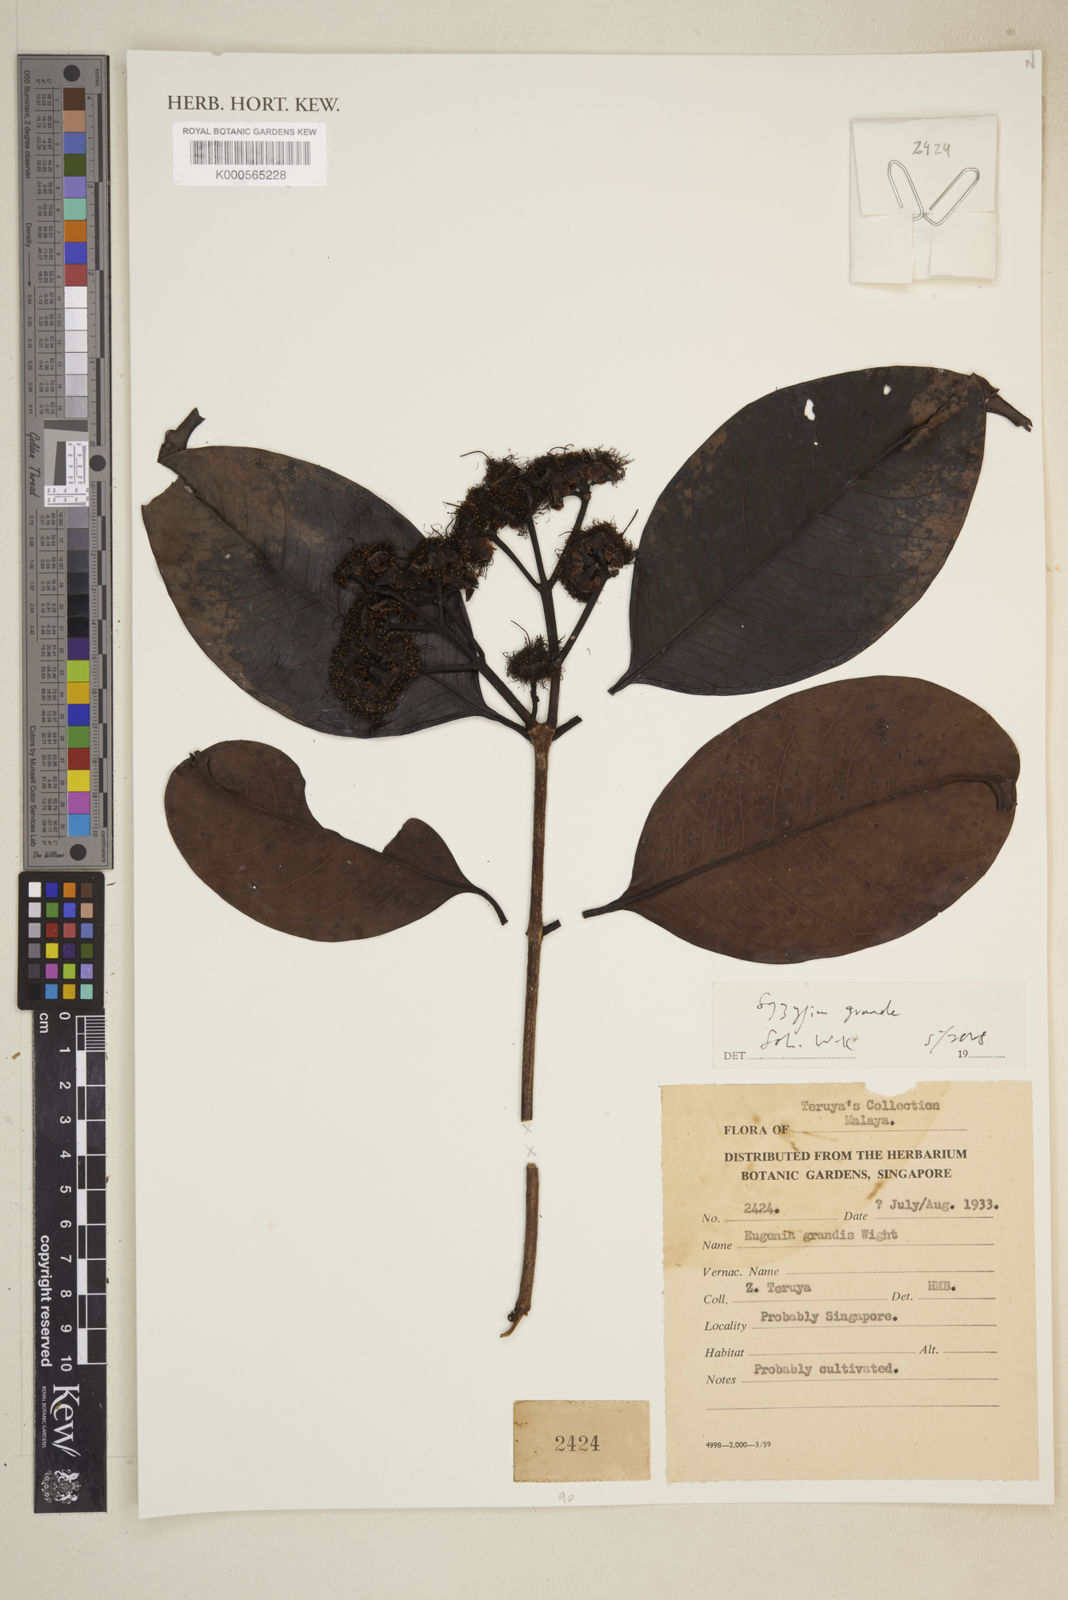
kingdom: Plantae
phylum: Tracheophyta
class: Magnoliopsida
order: Myrtales
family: Myrtaceae
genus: Syzygium
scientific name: Syzygium grande
